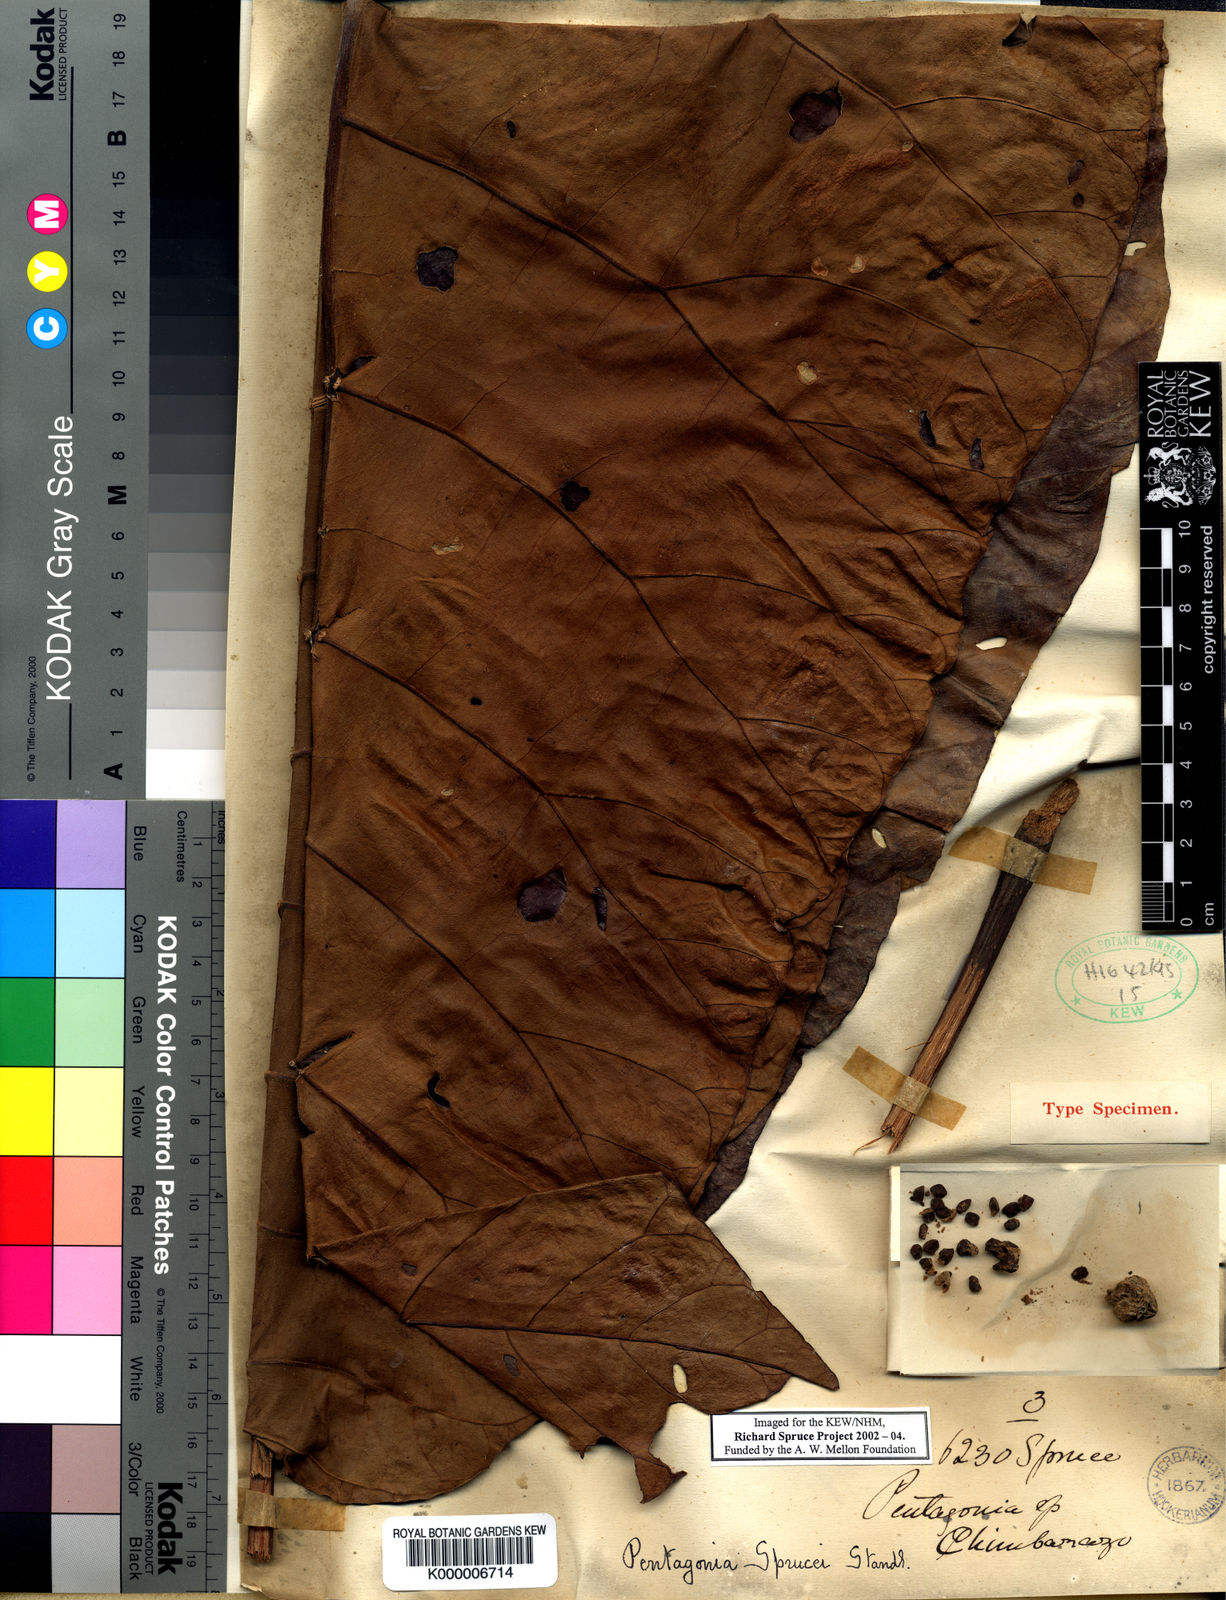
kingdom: Plantae
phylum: Tracheophyta
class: Magnoliopsida
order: Gentianales
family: Rubiaceae
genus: Pentagonia
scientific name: Pentagonia macrophylla
